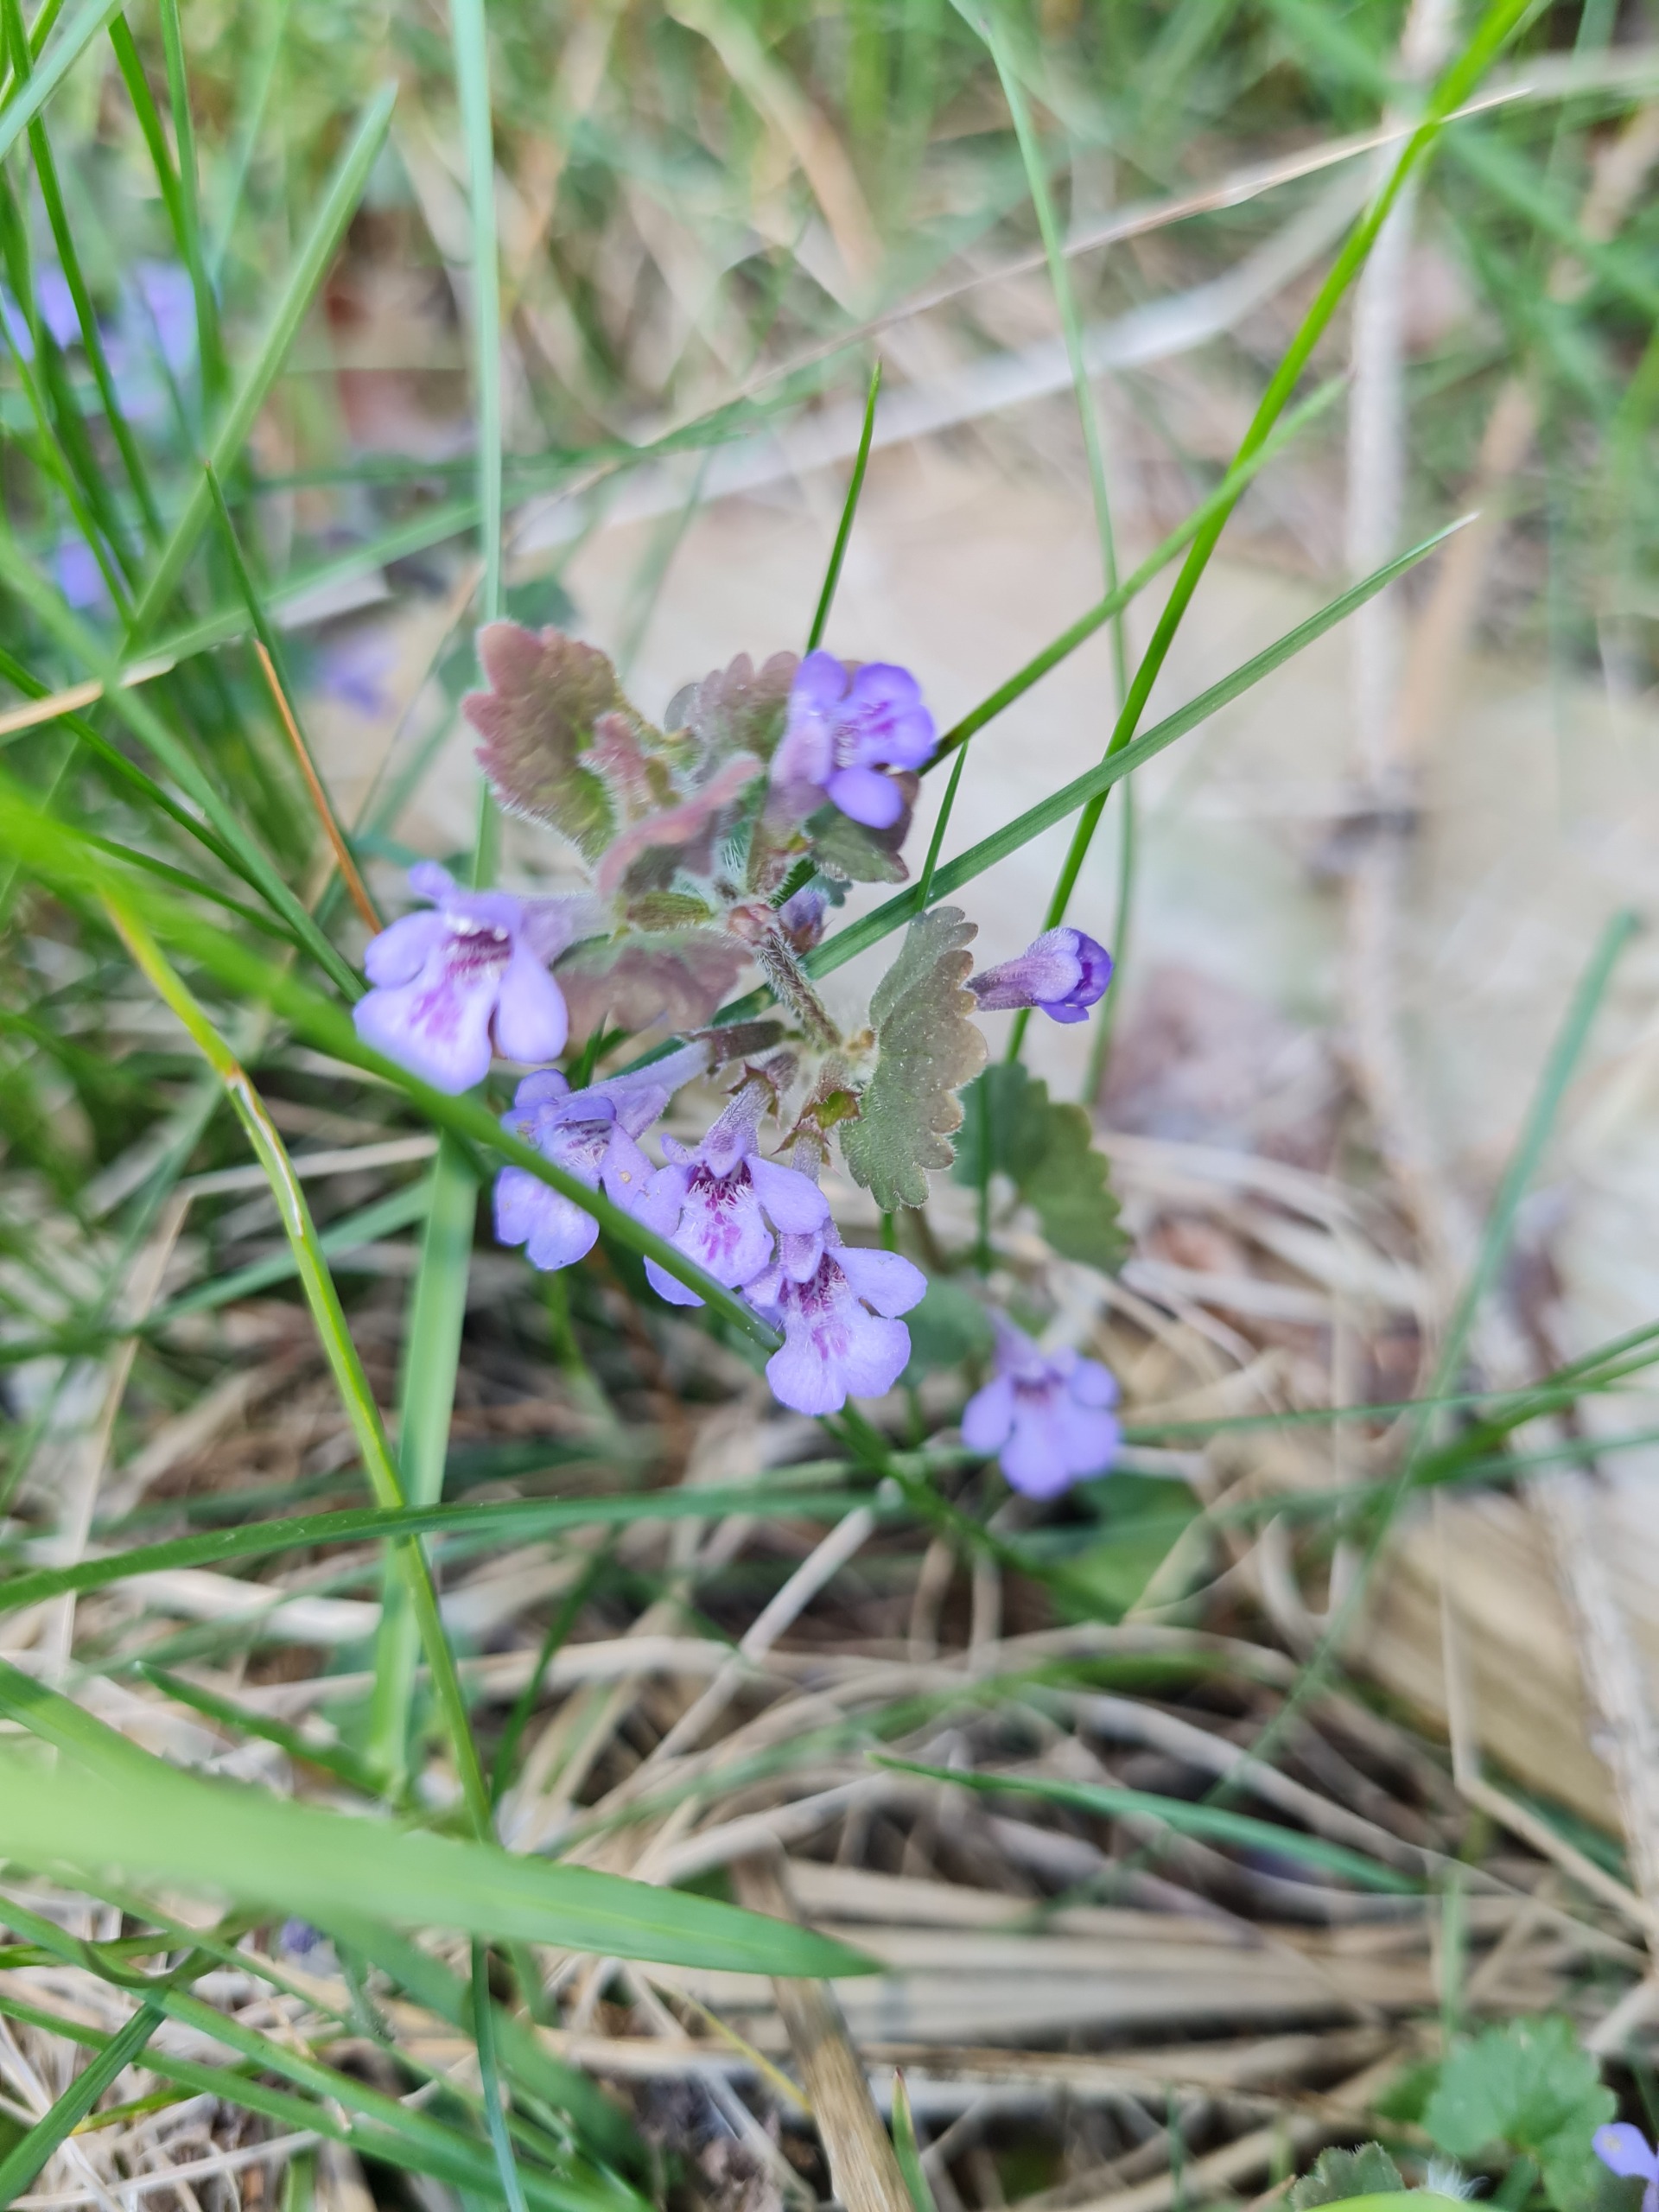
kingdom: Plantae
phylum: Tracheophyta
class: Magnoliopsida
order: Lamiales
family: Lamiaceae
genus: Glechoma
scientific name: Glechoma hederacea
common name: Korsknap
